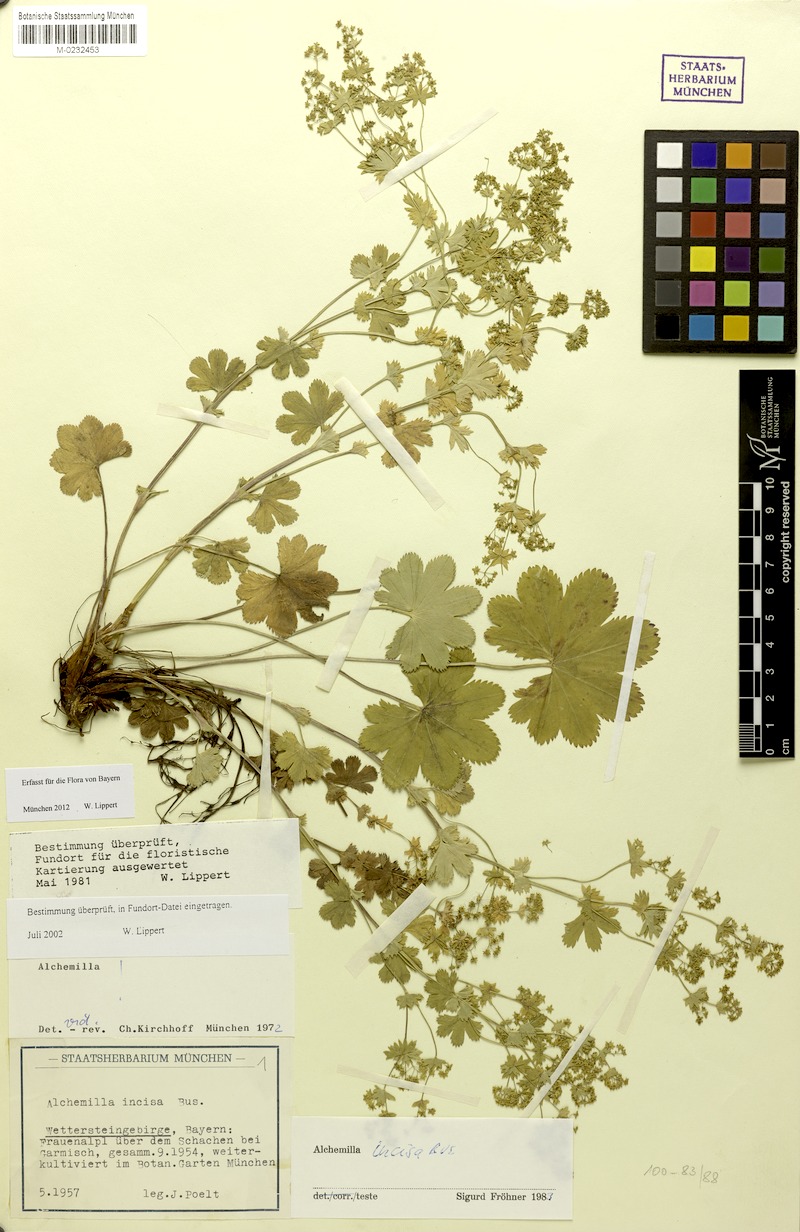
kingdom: Plantae
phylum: Tracheophyta
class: Magnoliopsida
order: Rosales
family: Rosaceae
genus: Alchemilla
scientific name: Alchemilla incisa
